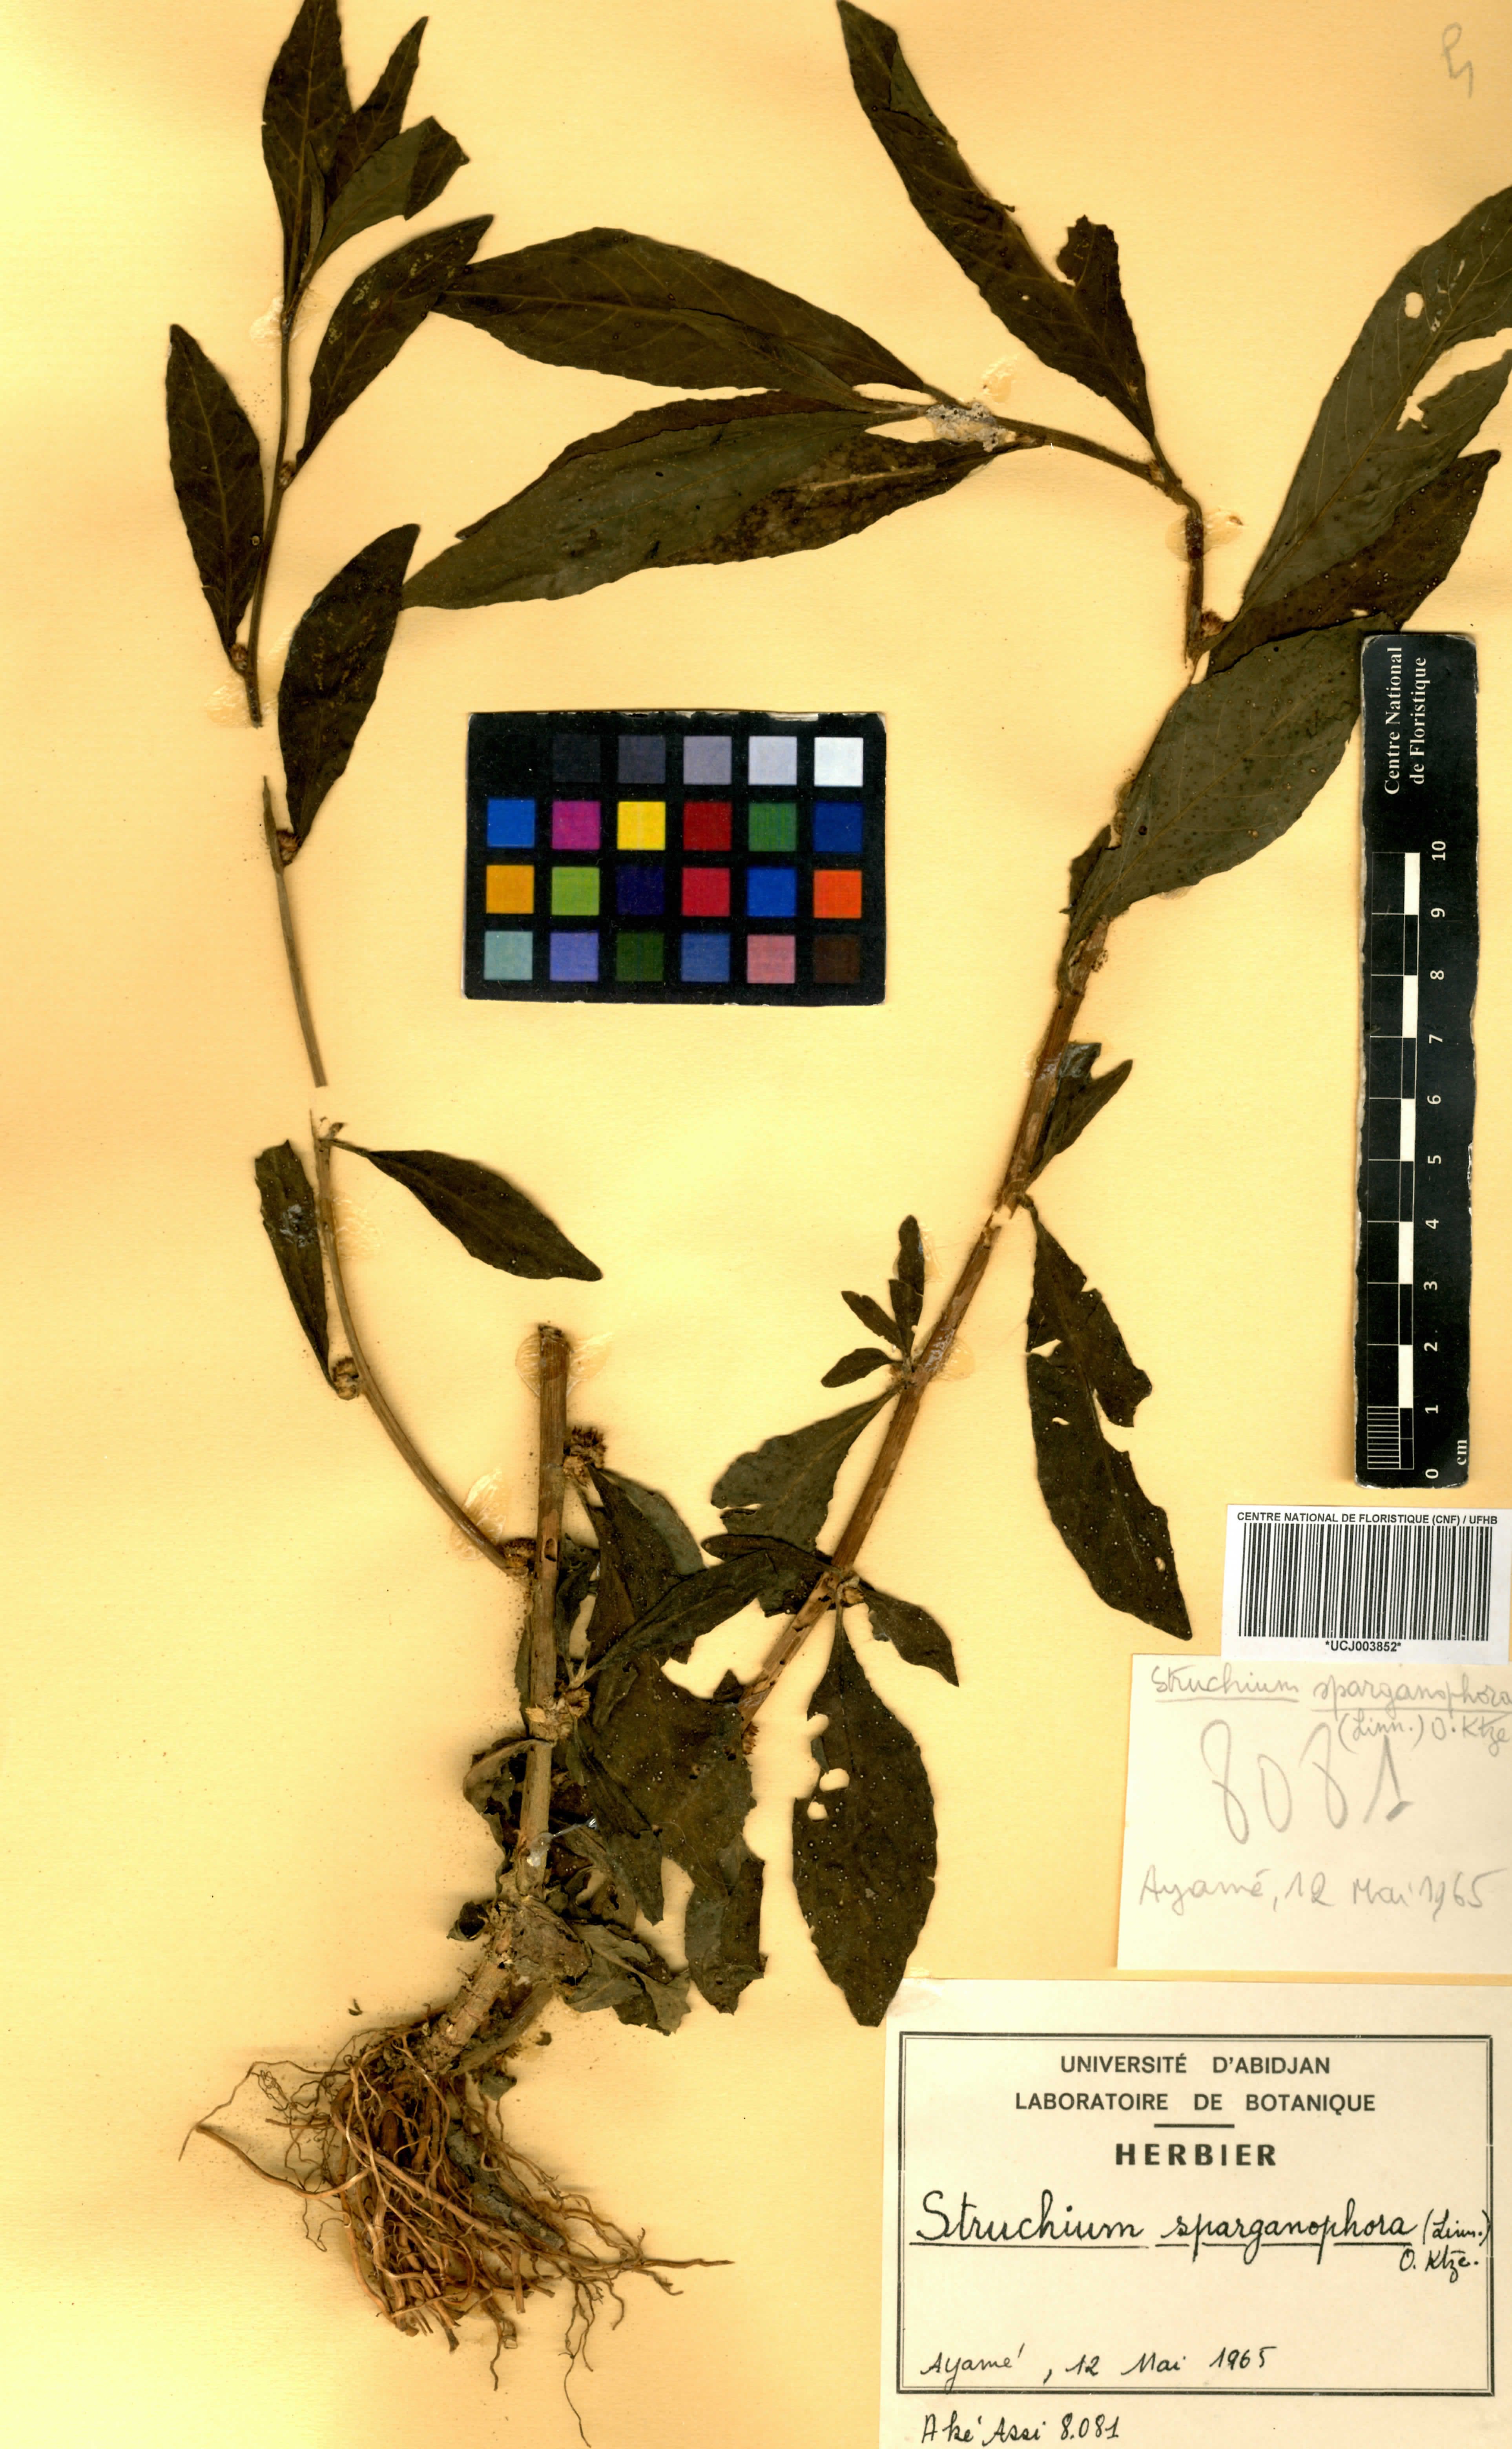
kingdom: Plantae
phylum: Tracheophyta
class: Magnoliopsida
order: Asterales
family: Asteraceae
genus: Struchium
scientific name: Struchium sparganophorum
